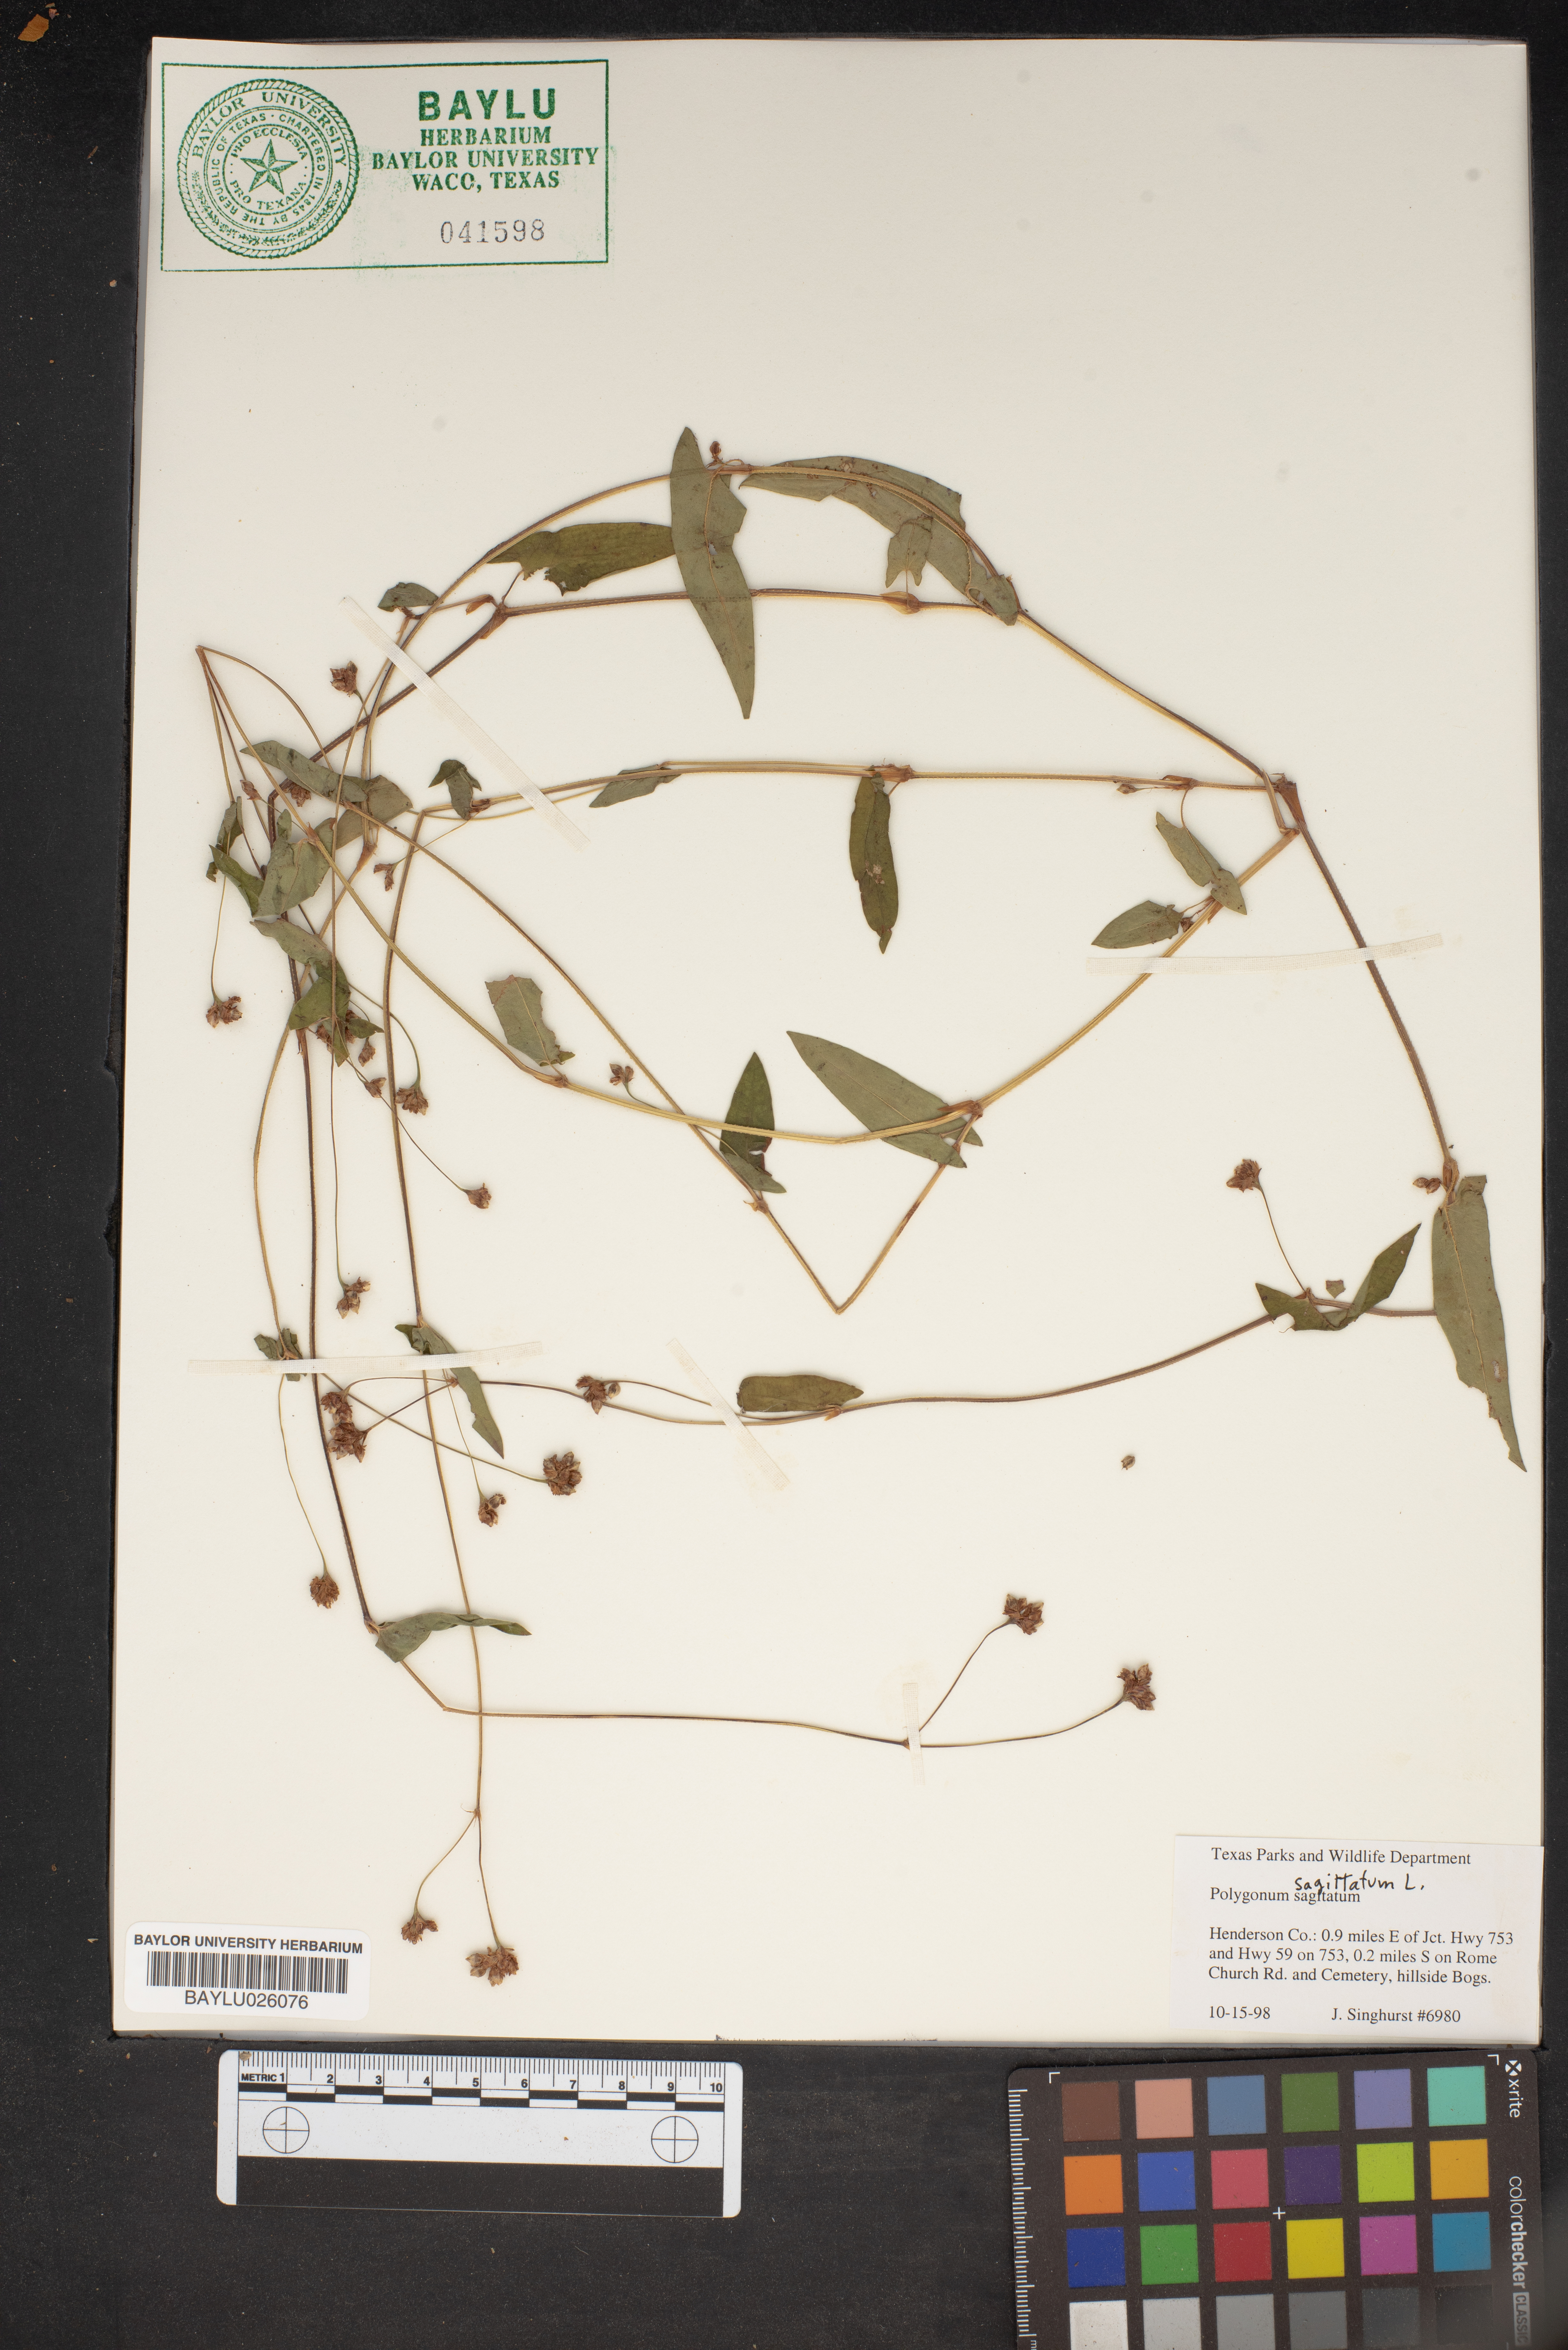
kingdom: Plantae
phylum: Tracheophyta
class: Magnoliopsida
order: Caryophyllales
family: Polygonaceae
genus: Persicaria
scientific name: Persicaria sagittata
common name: American tearthumb
